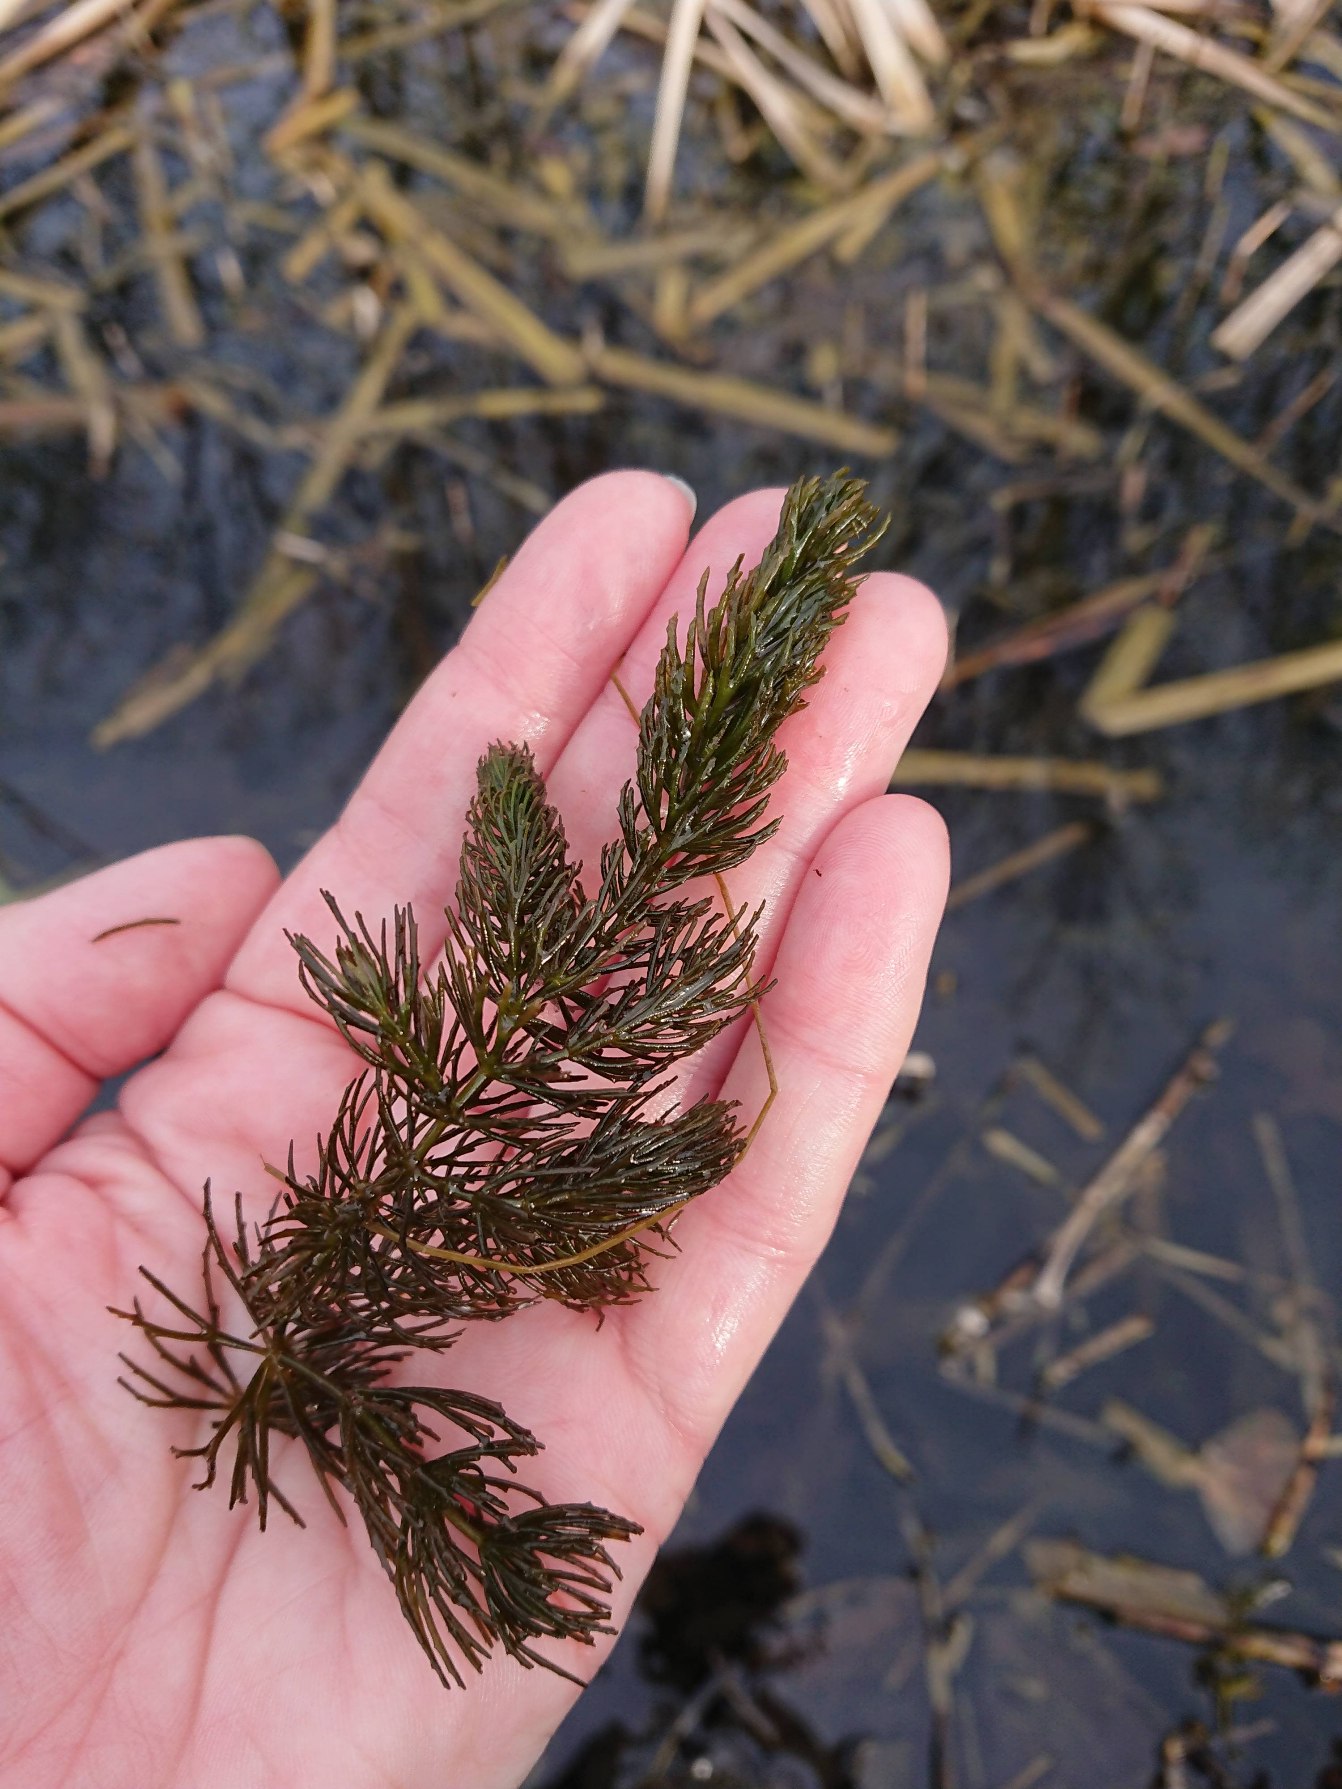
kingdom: Plantae
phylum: Tracheophyta
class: Magnoliopsida
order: Ceratophyllales
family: Ceratophyllaceae
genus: Ceratophyllum
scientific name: Ceratophyllum demersum
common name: Tornfrøet hornblad
